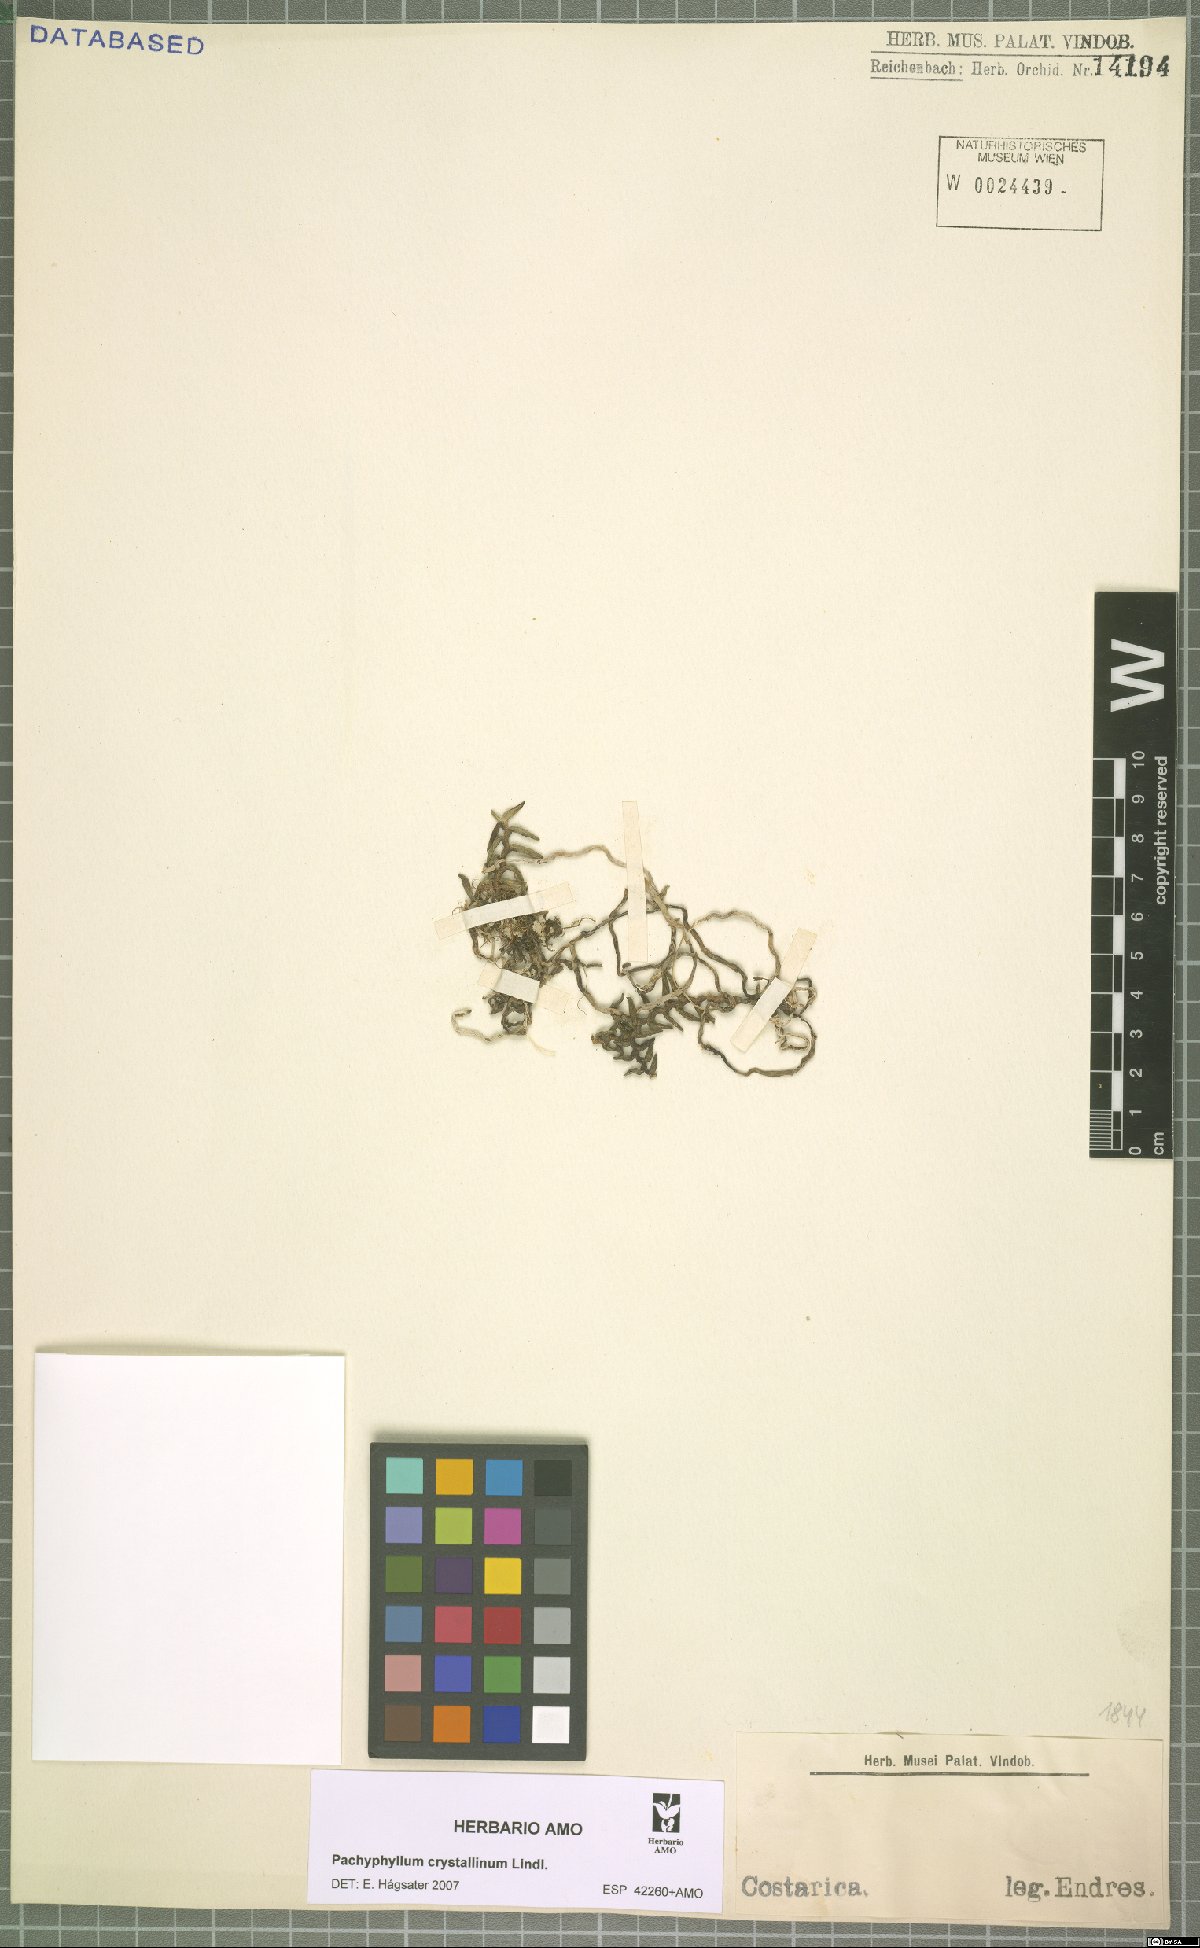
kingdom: Plantae
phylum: Tracheophyta
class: Liliopsida
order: Asparagales
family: Orchidaceae
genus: Fernandezia
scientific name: Fernandezia crystallina
